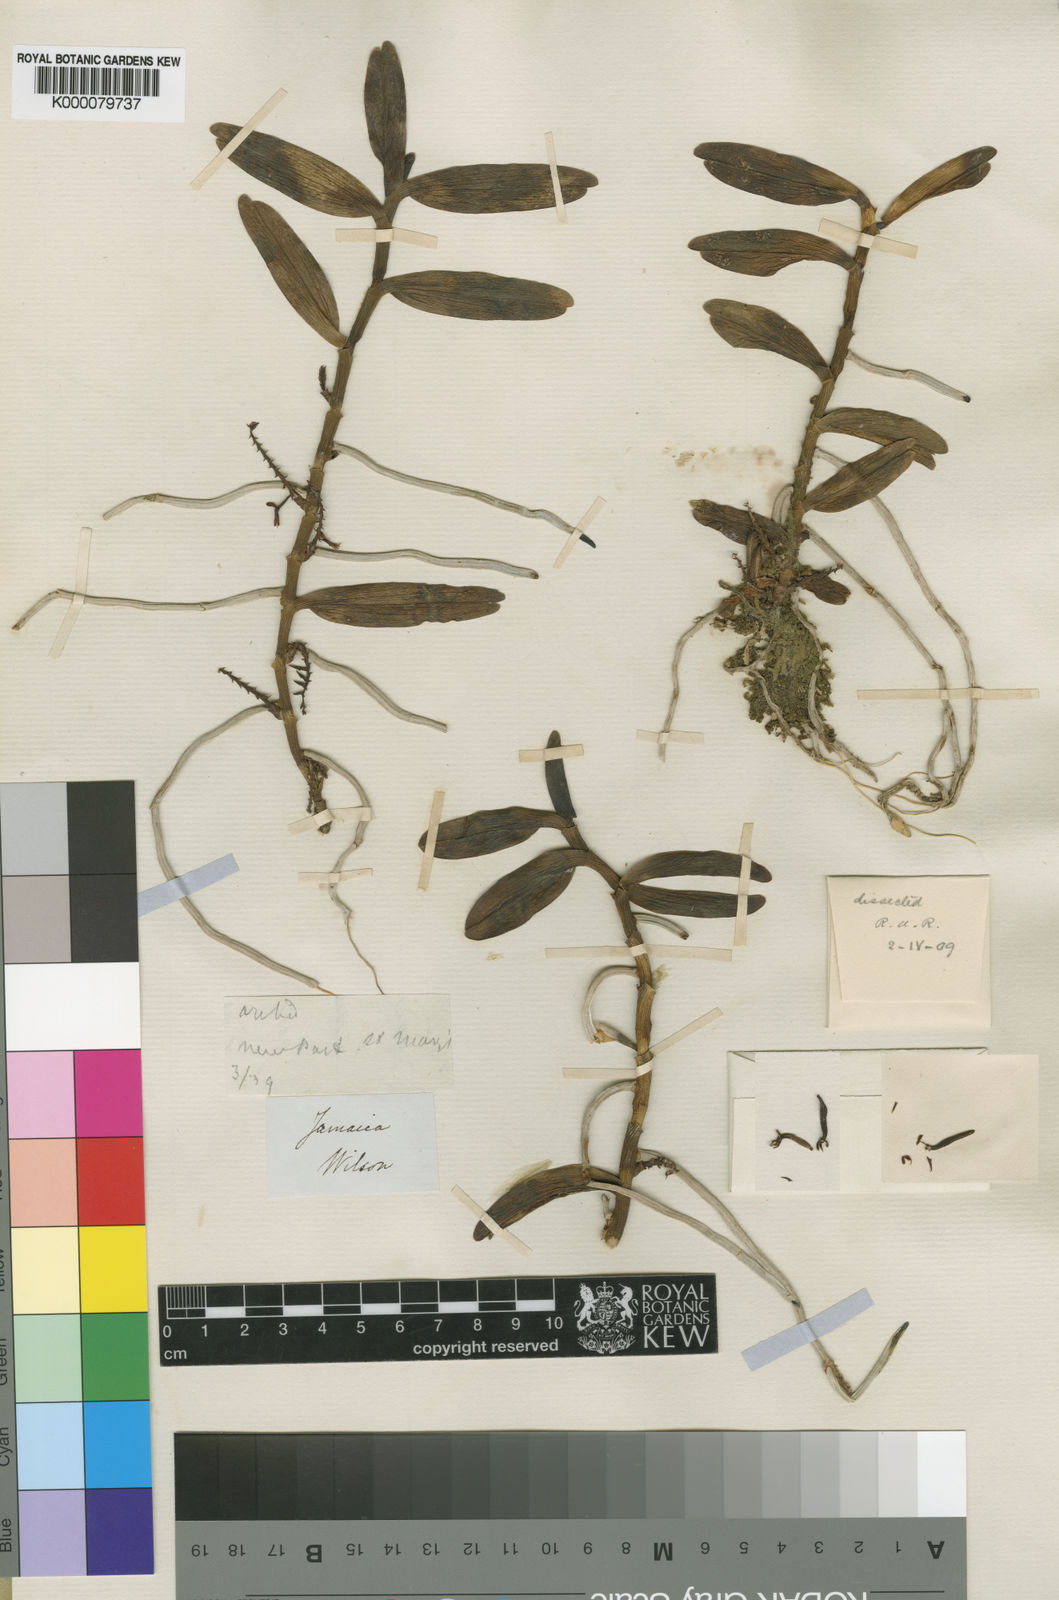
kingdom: Plantae
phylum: Tracheophyta
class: Liliopsida
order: Asparagales
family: Orchidaceae
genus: Campylocentrum
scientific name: Campylocentrum jamaicense
